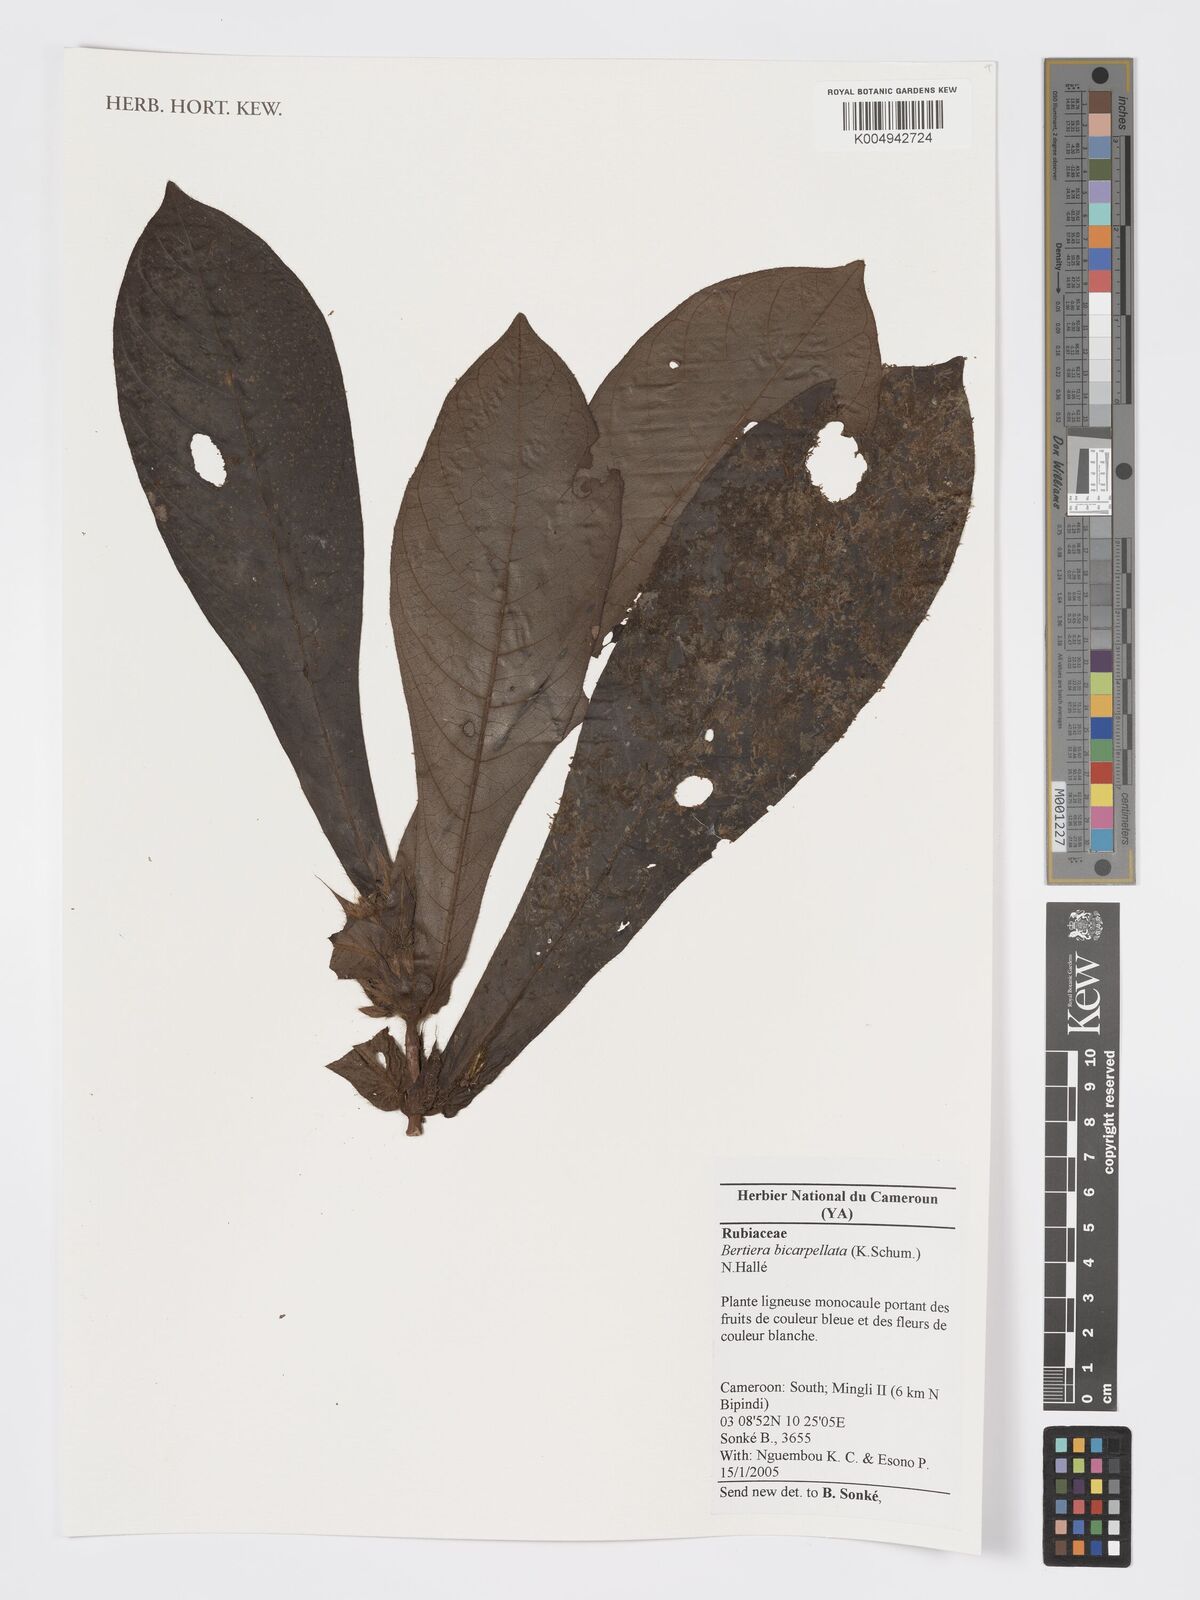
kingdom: Plantae
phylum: Tracheophyta
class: Magnoliopsida
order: Gentianales
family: Rubiaceae
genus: Bertiera
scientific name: Bertiera bicarpellata
